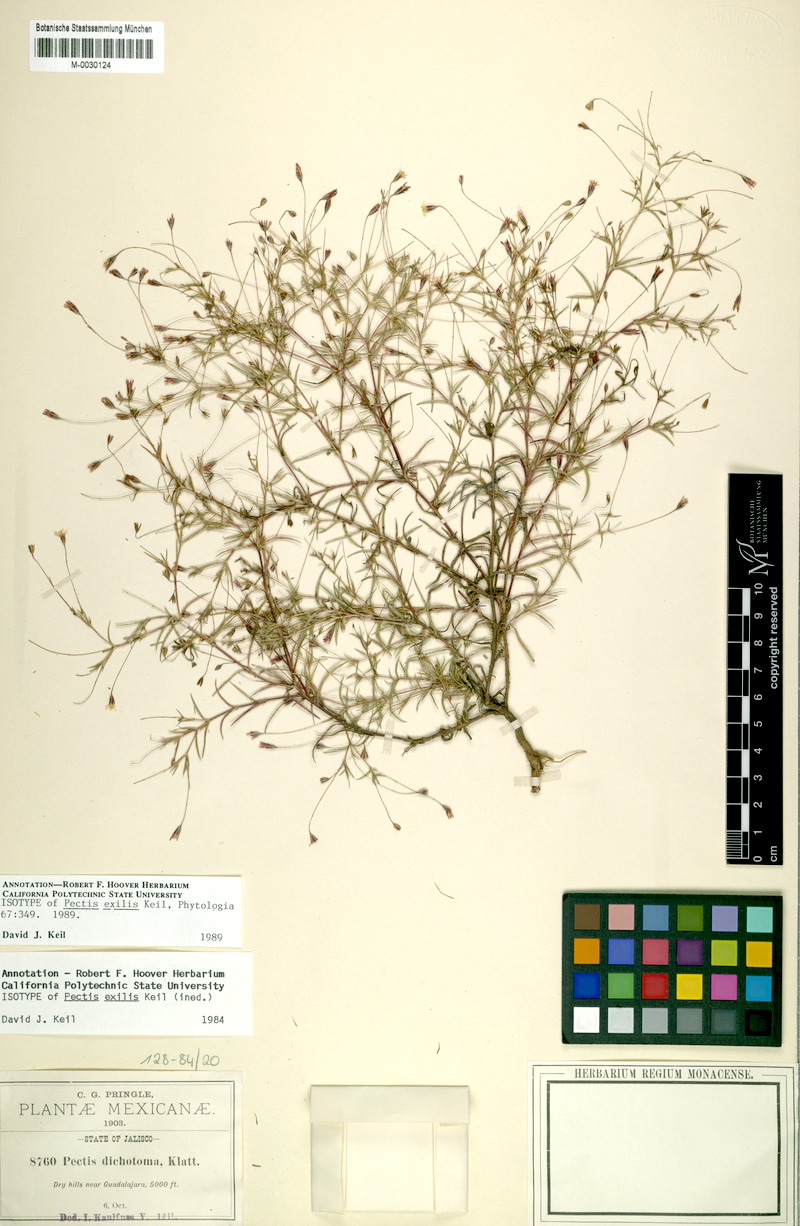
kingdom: Plantae
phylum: Tracheophyta
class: Magnoliopsida
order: Asterales
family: Asteraceae
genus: Pectis
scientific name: Pectis exilis
